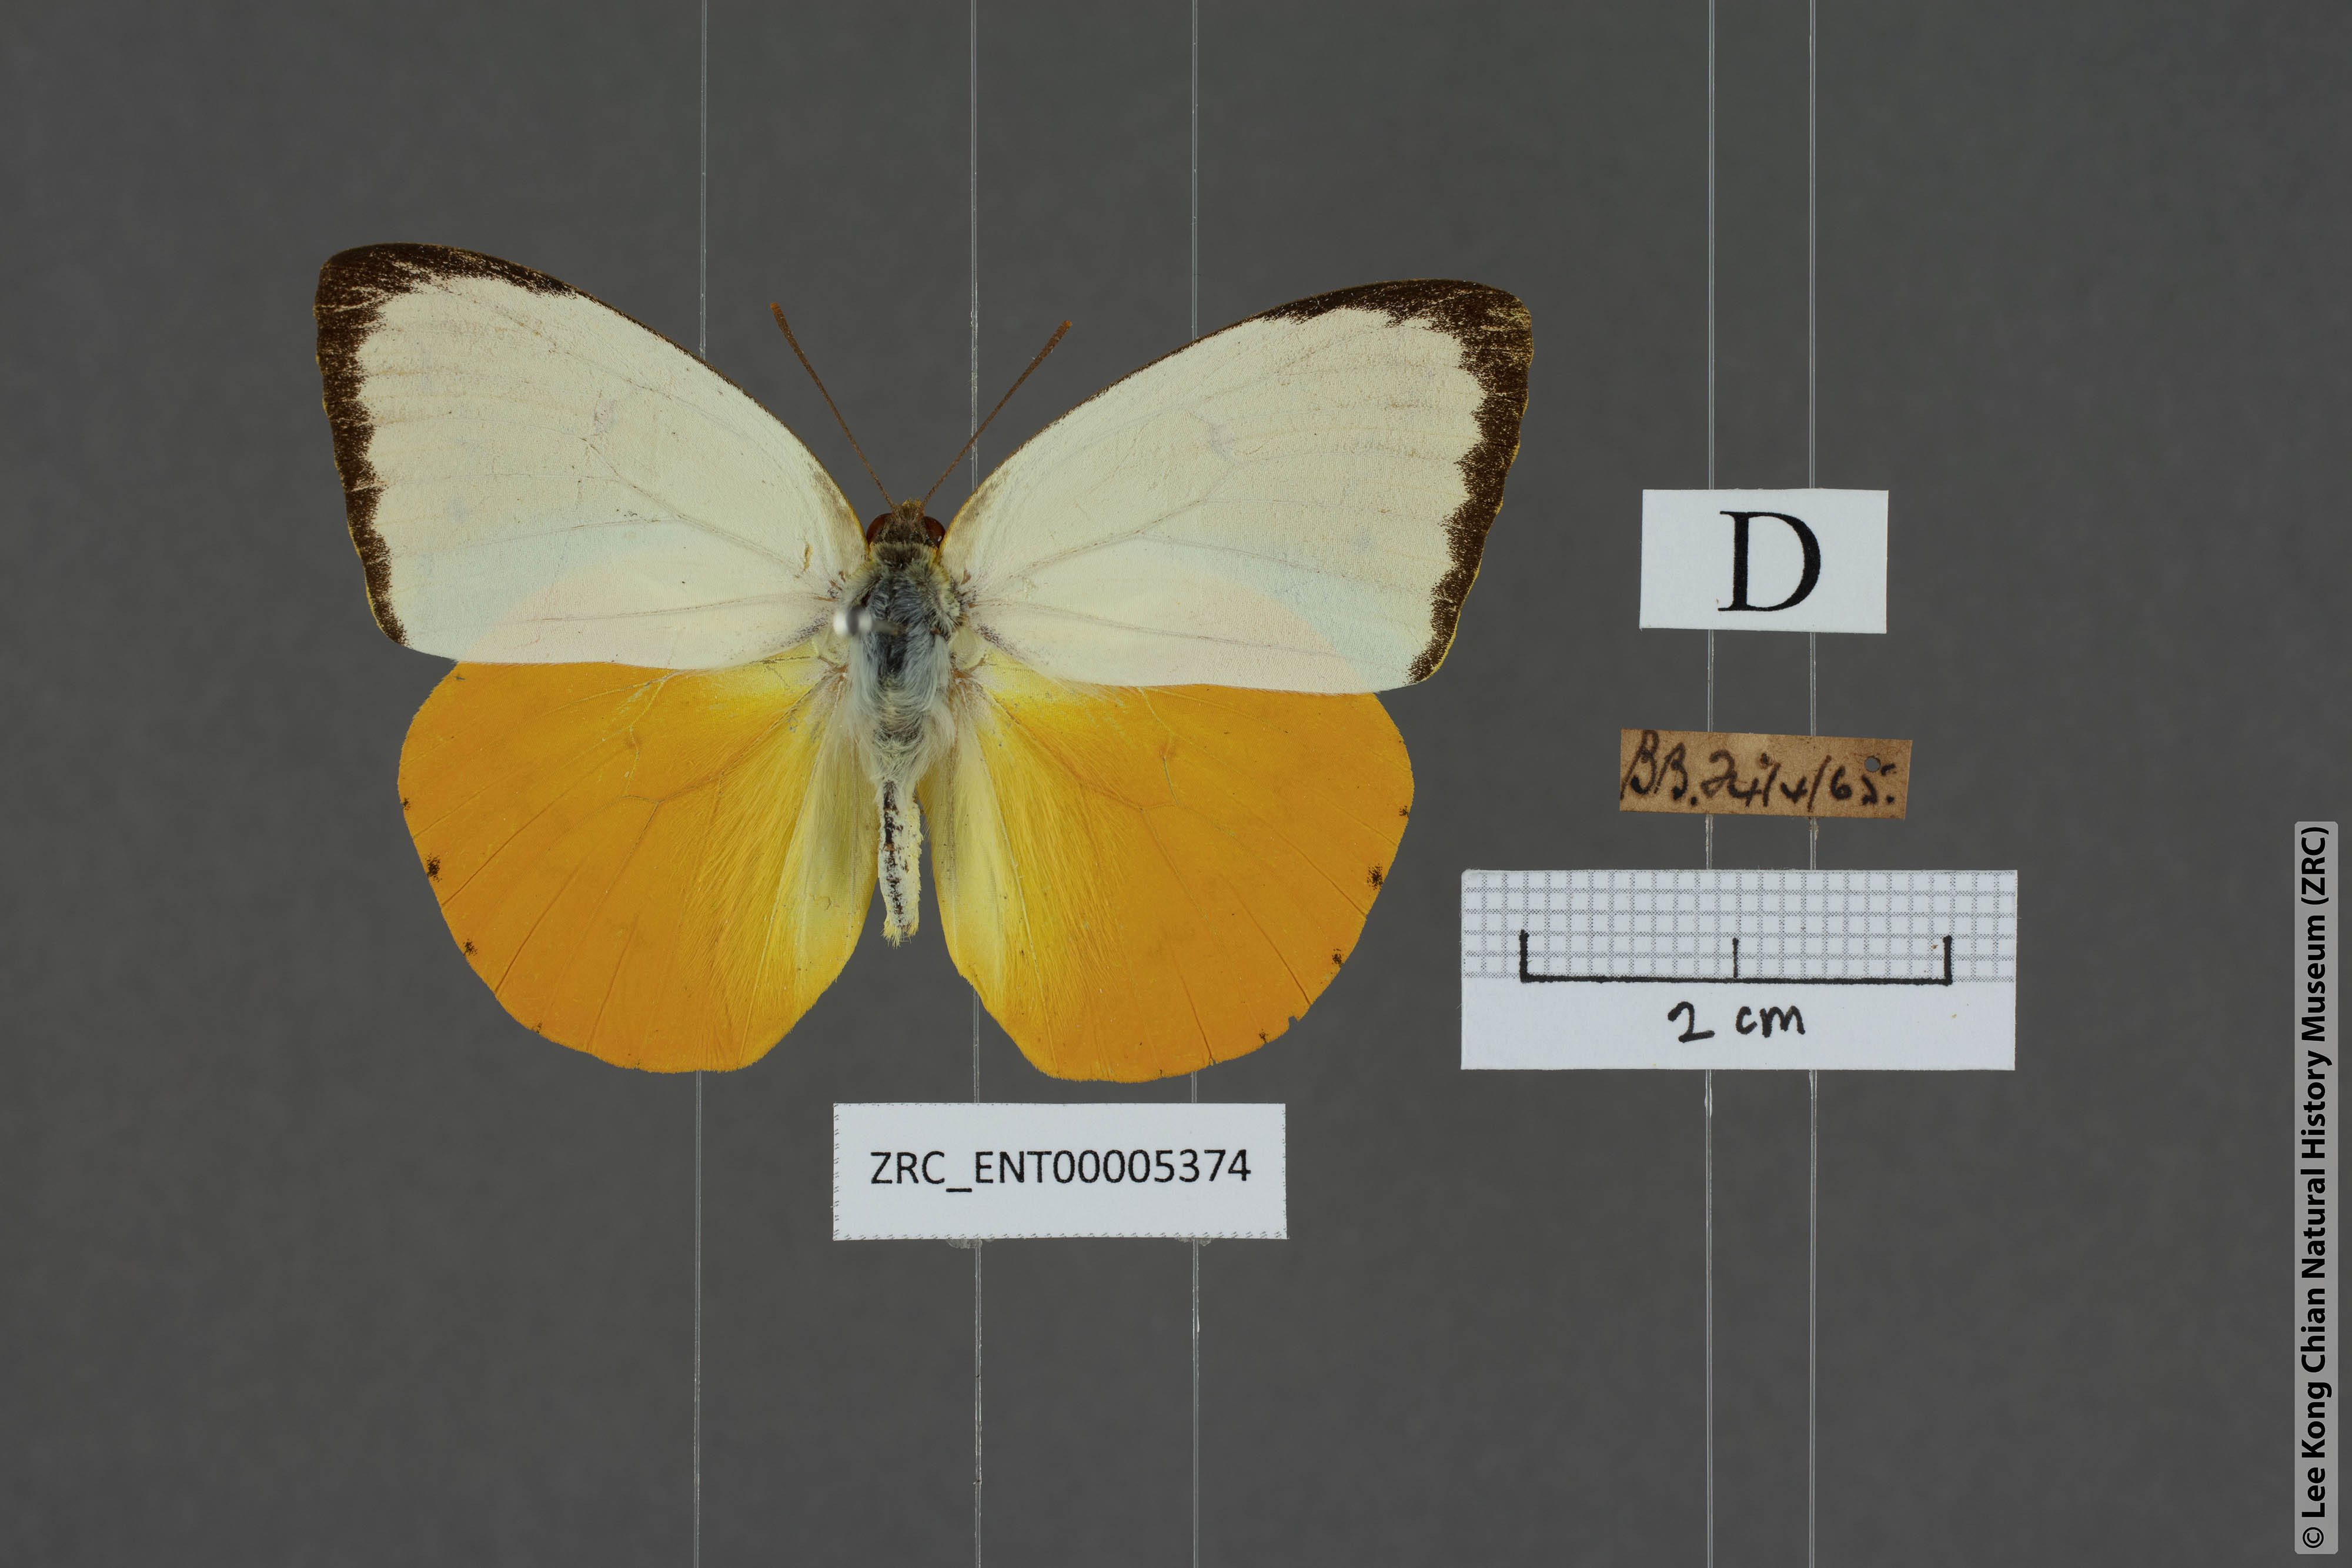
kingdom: Animalia
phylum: Arthropoda
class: Insecta
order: Lepidoptera
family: Pieridae
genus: Catopsilia
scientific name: Catopsilia scylla
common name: Orange emigrant
